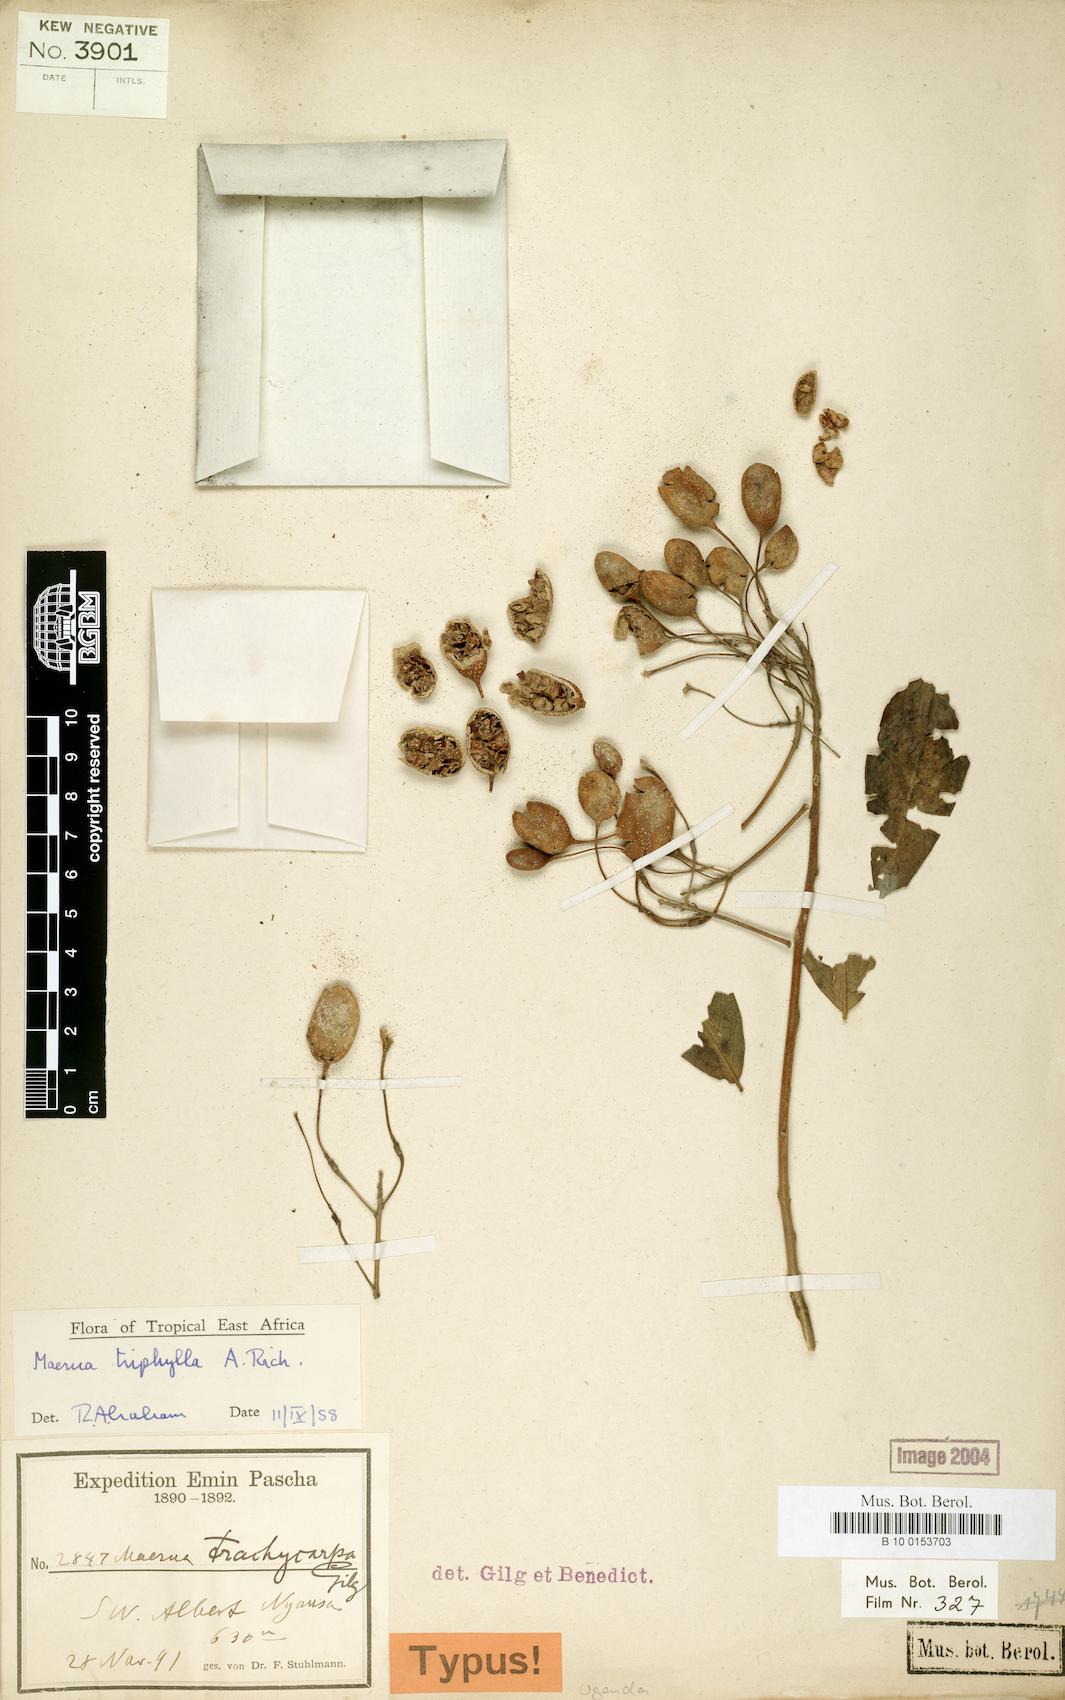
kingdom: Plantae
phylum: Tracheophyta
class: Magnoliopsida
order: Brassicales
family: Capparaceae
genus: Maerua
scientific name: Maerua triphylla
